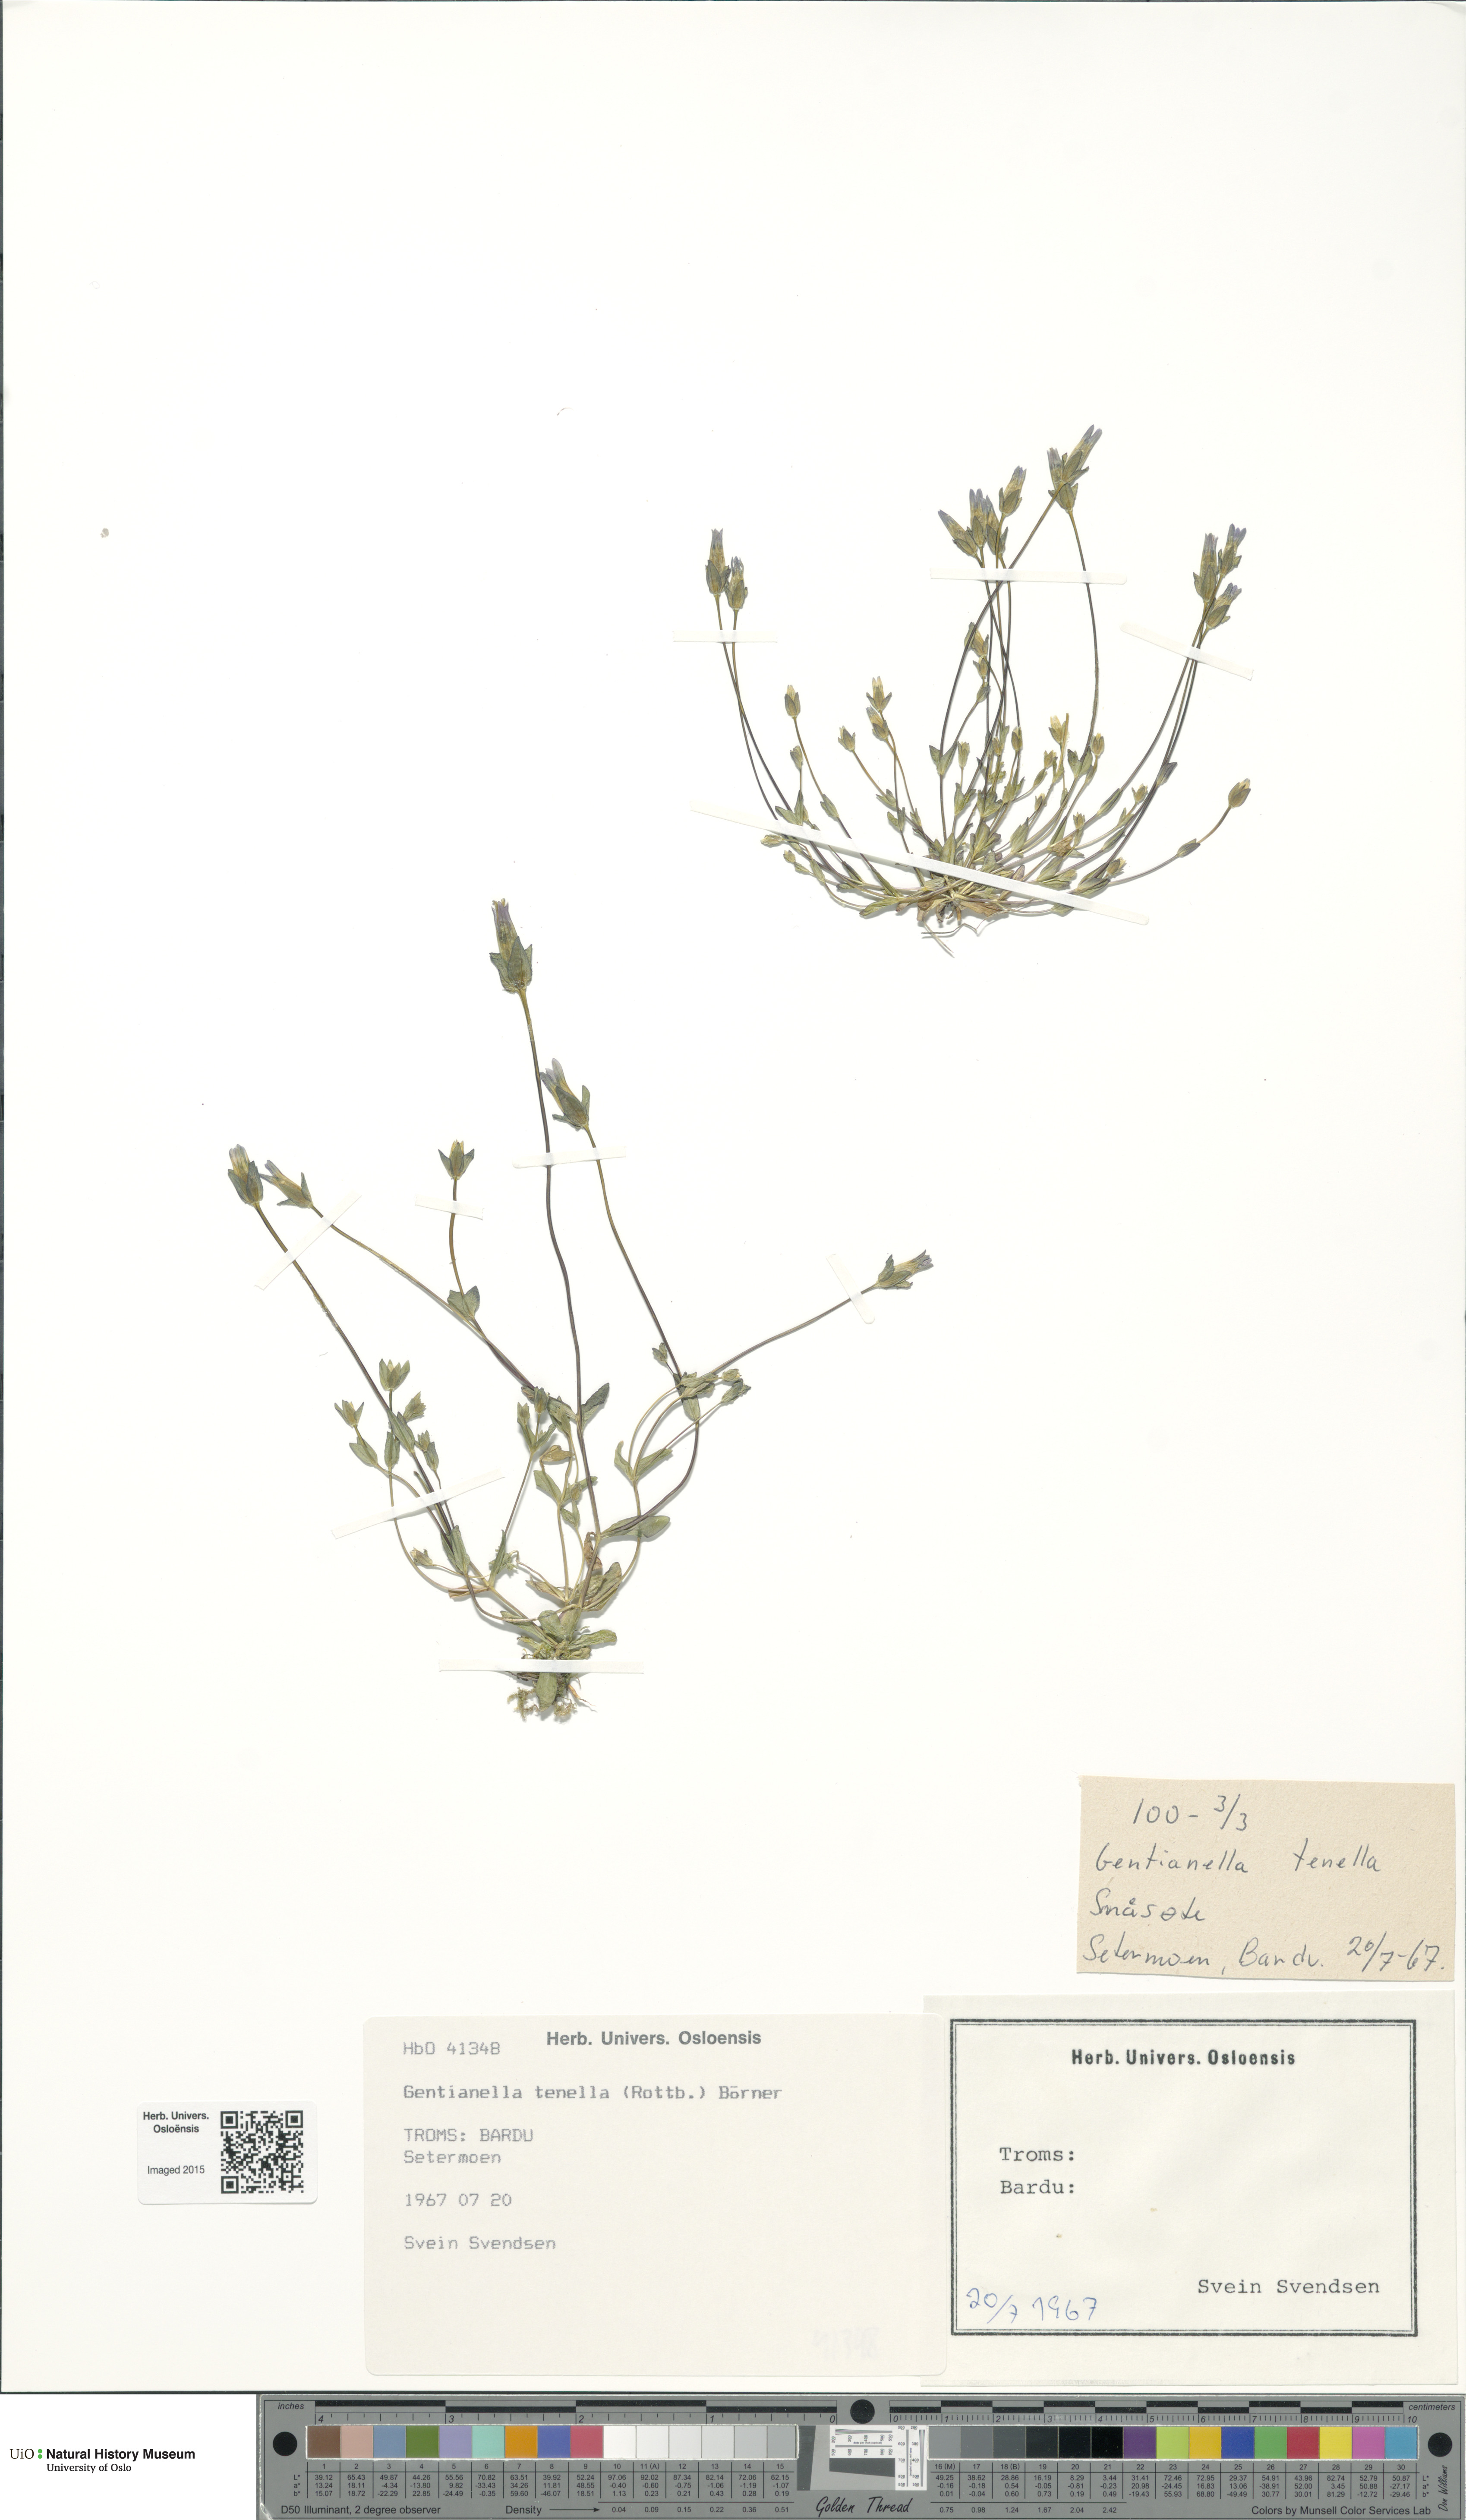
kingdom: Plantae
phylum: Tracheophyta
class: Magnoliopsida
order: Gentianales
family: Gentianaceae
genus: Comastoma
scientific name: Comastoma tenellum
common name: Dane's dwarf gentian
